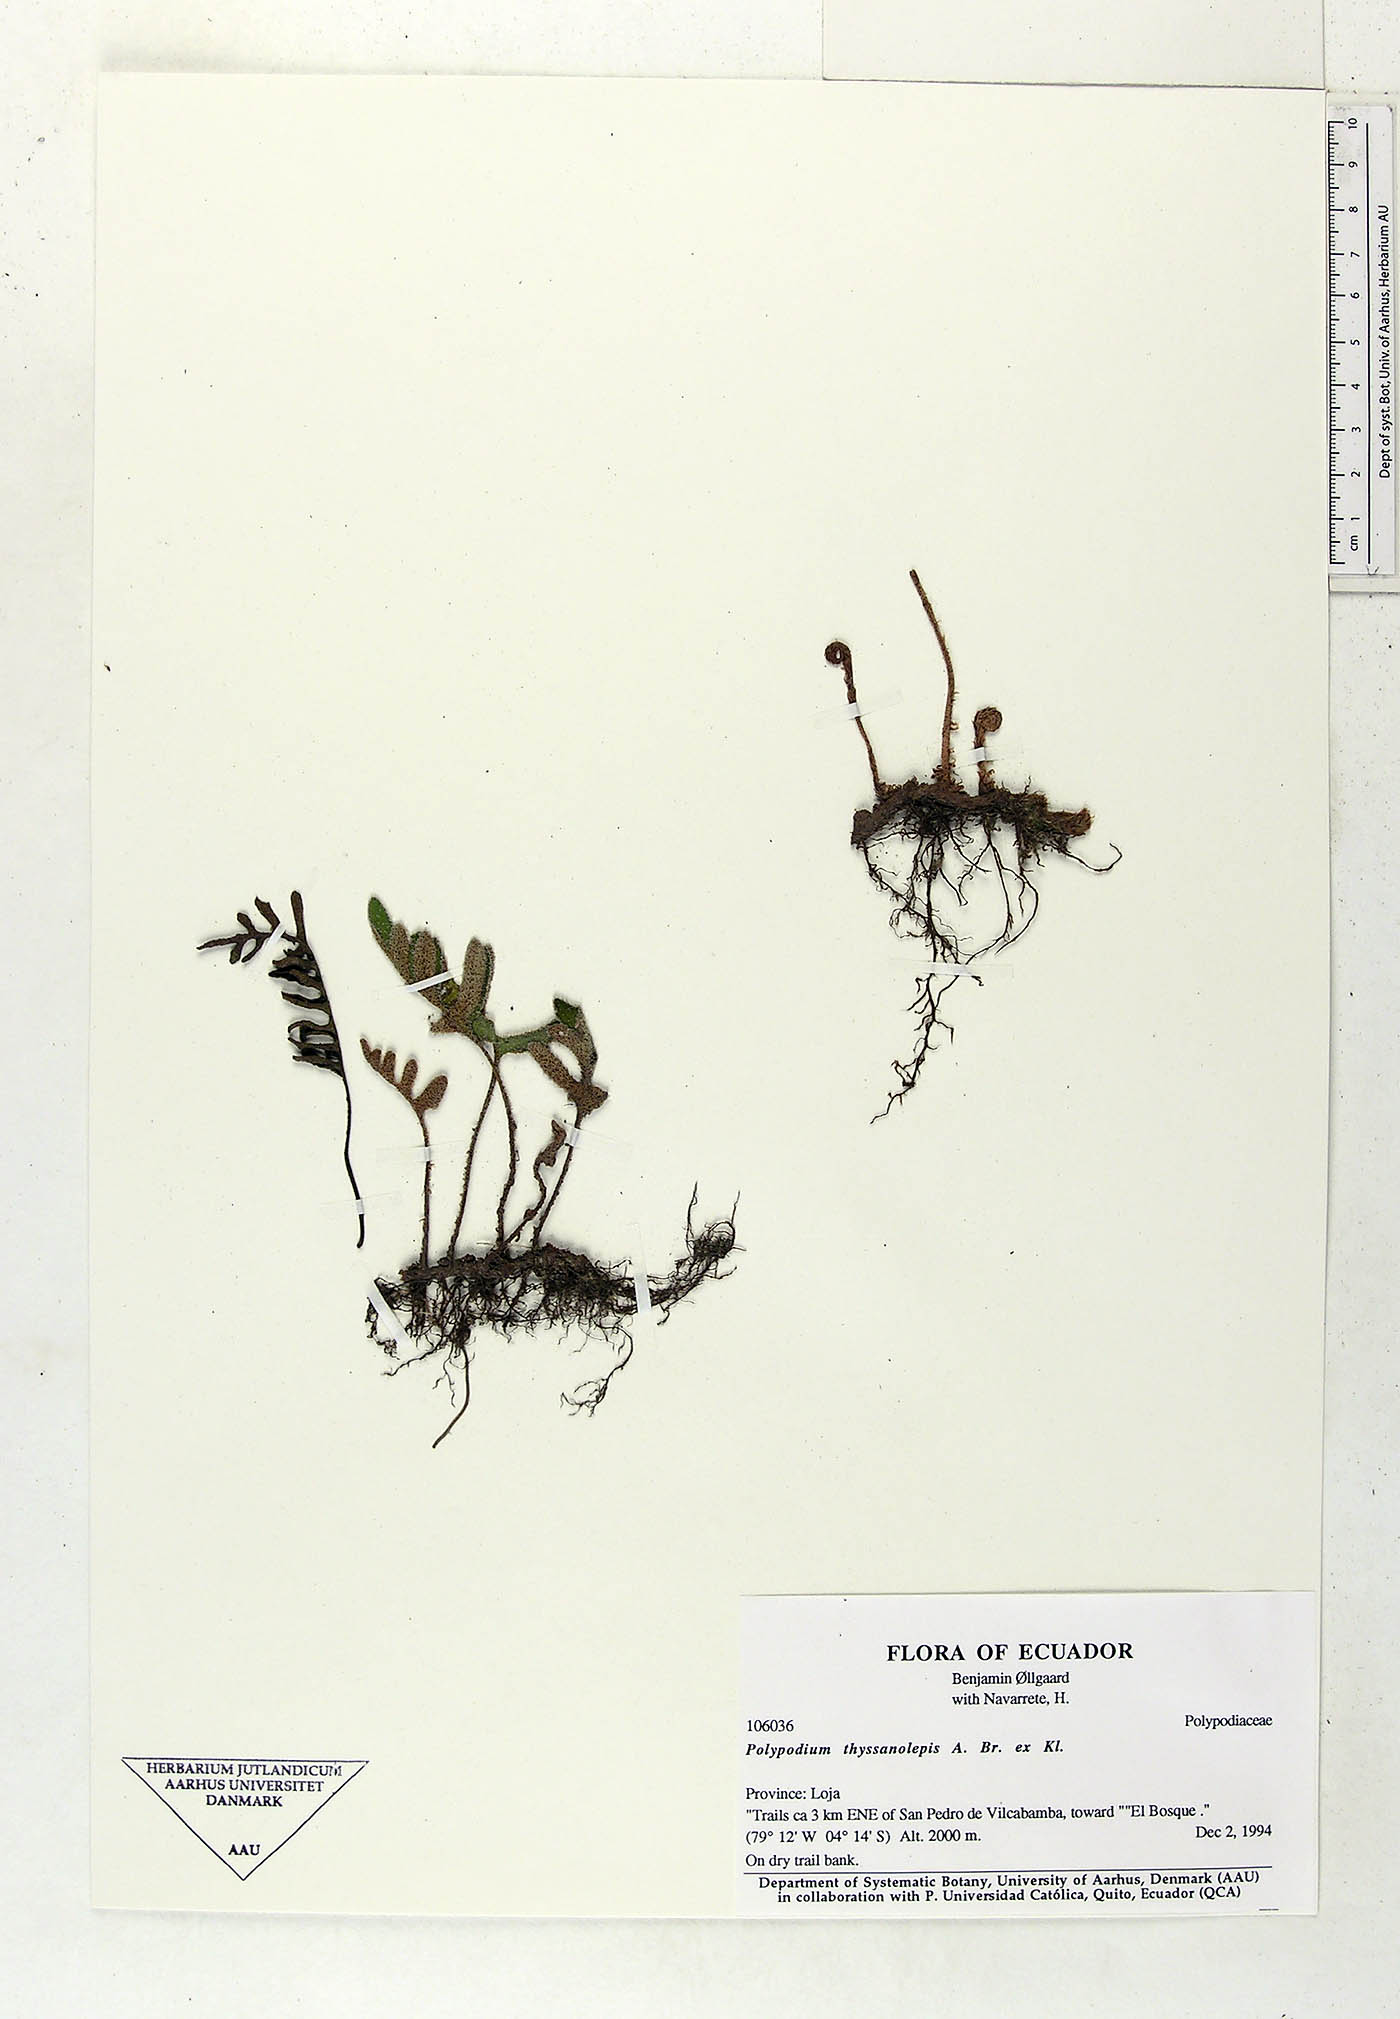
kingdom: Plantae
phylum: Tracheophyta
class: Polypodiopsida
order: Polypodiales
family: Polypodiaceae
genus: Pleopeltis
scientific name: Pleopeltis thyssanolepis
